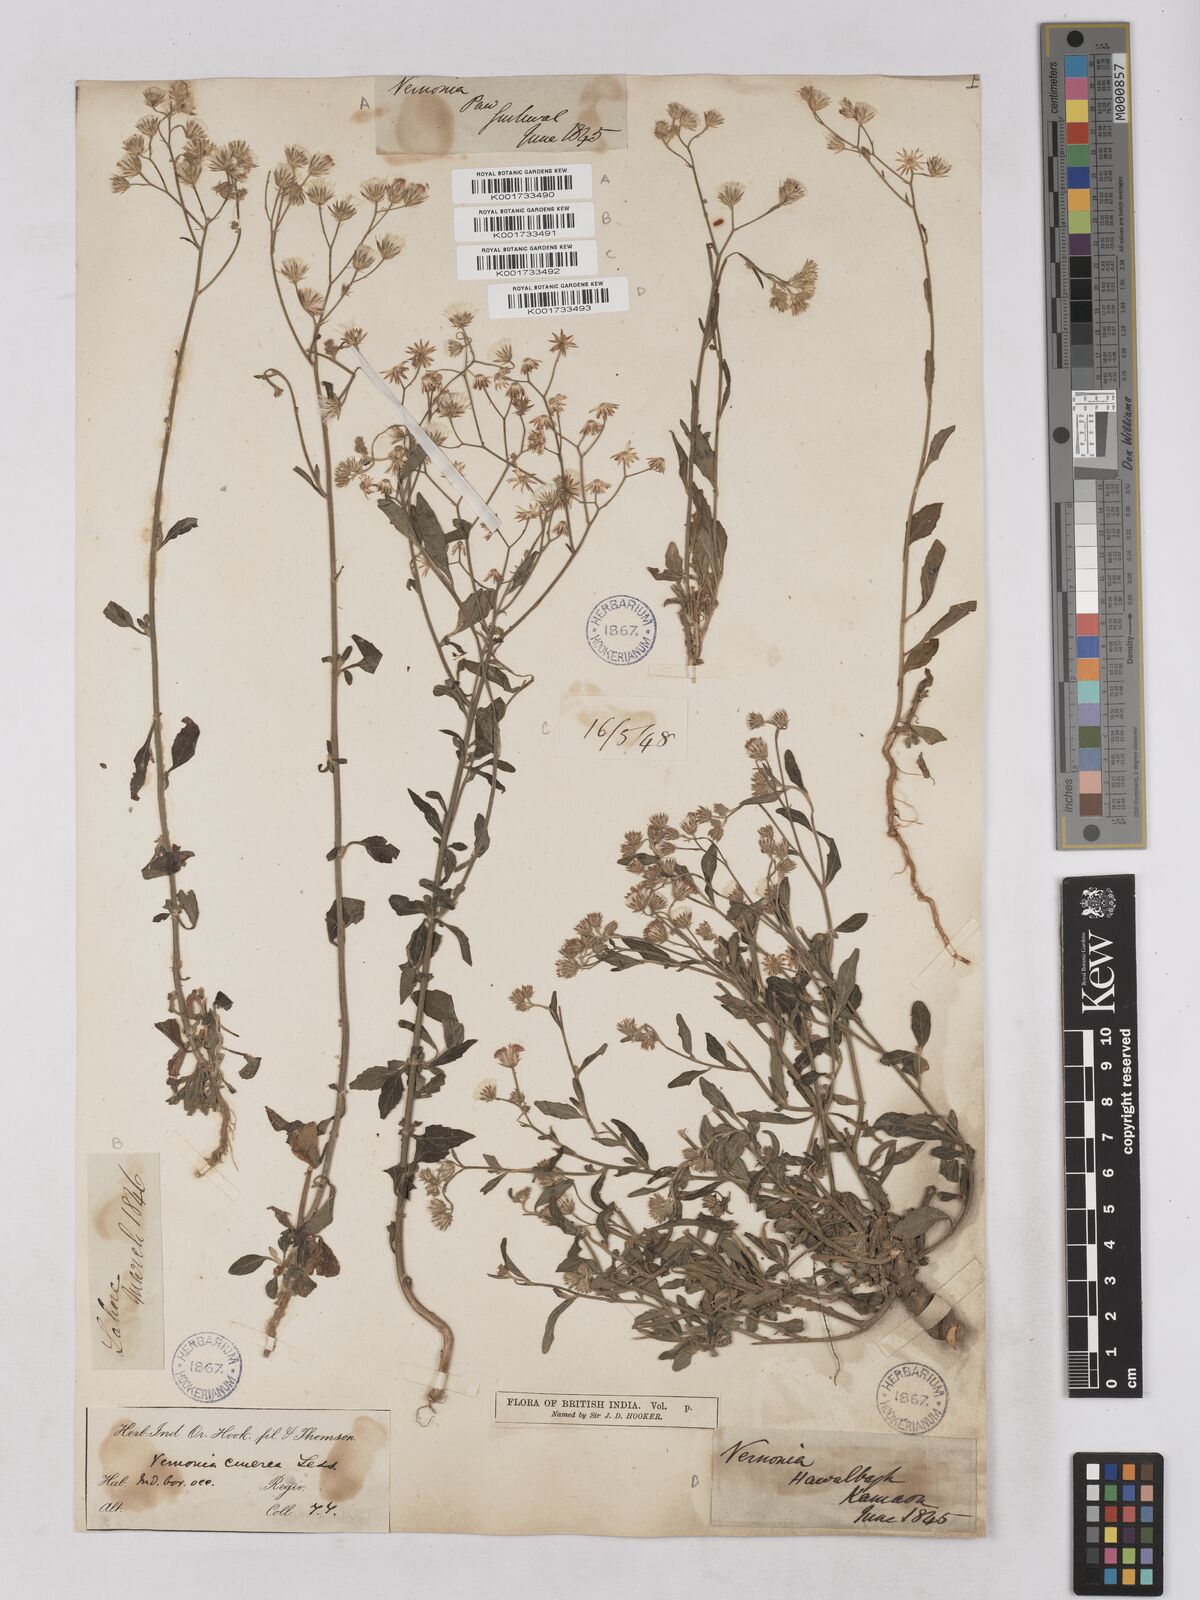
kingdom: Plantae
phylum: Tracheophyta
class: Magnoliopsida
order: Asterales
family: Asteraceae
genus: Cyanthillium
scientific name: Cyanthillium cinereum
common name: Little ironweed
